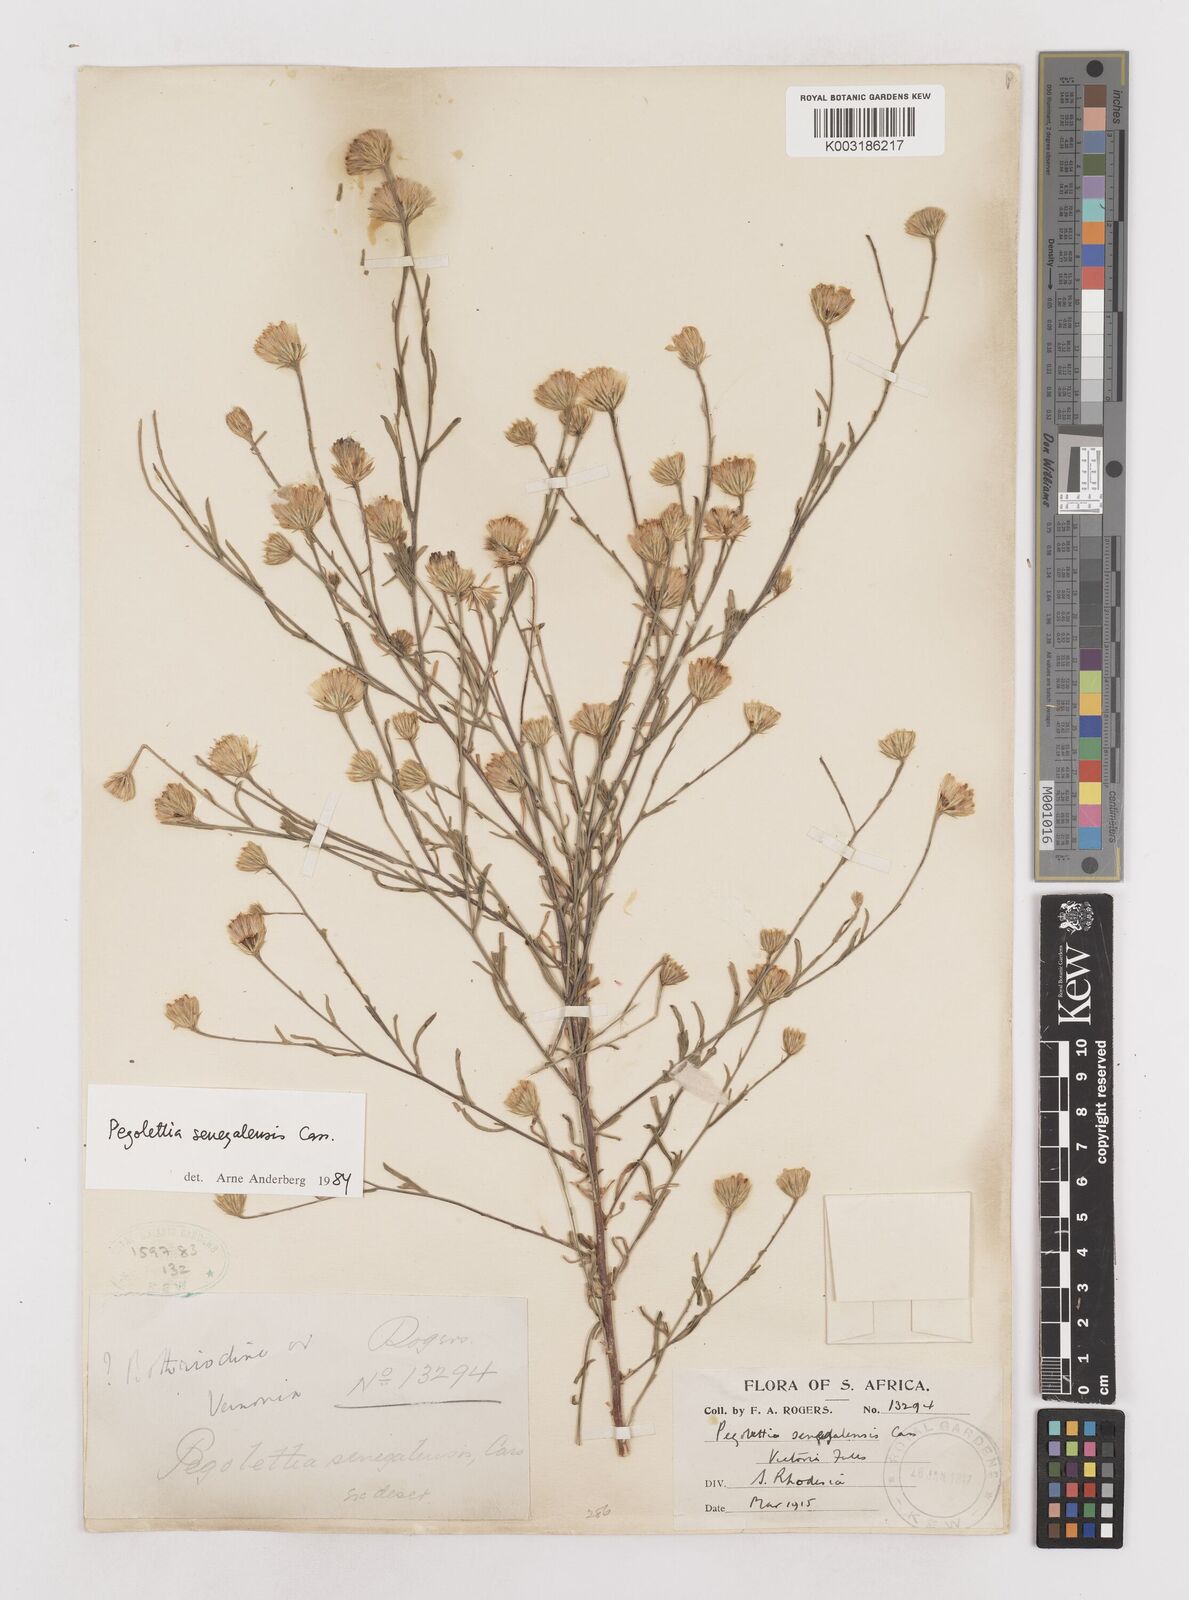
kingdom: Plantae
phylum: Tracheophyta
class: Magnoliopsida
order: Asterales
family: Asteraceae
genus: Pegolettia
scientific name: Pegolettia senegalensis
